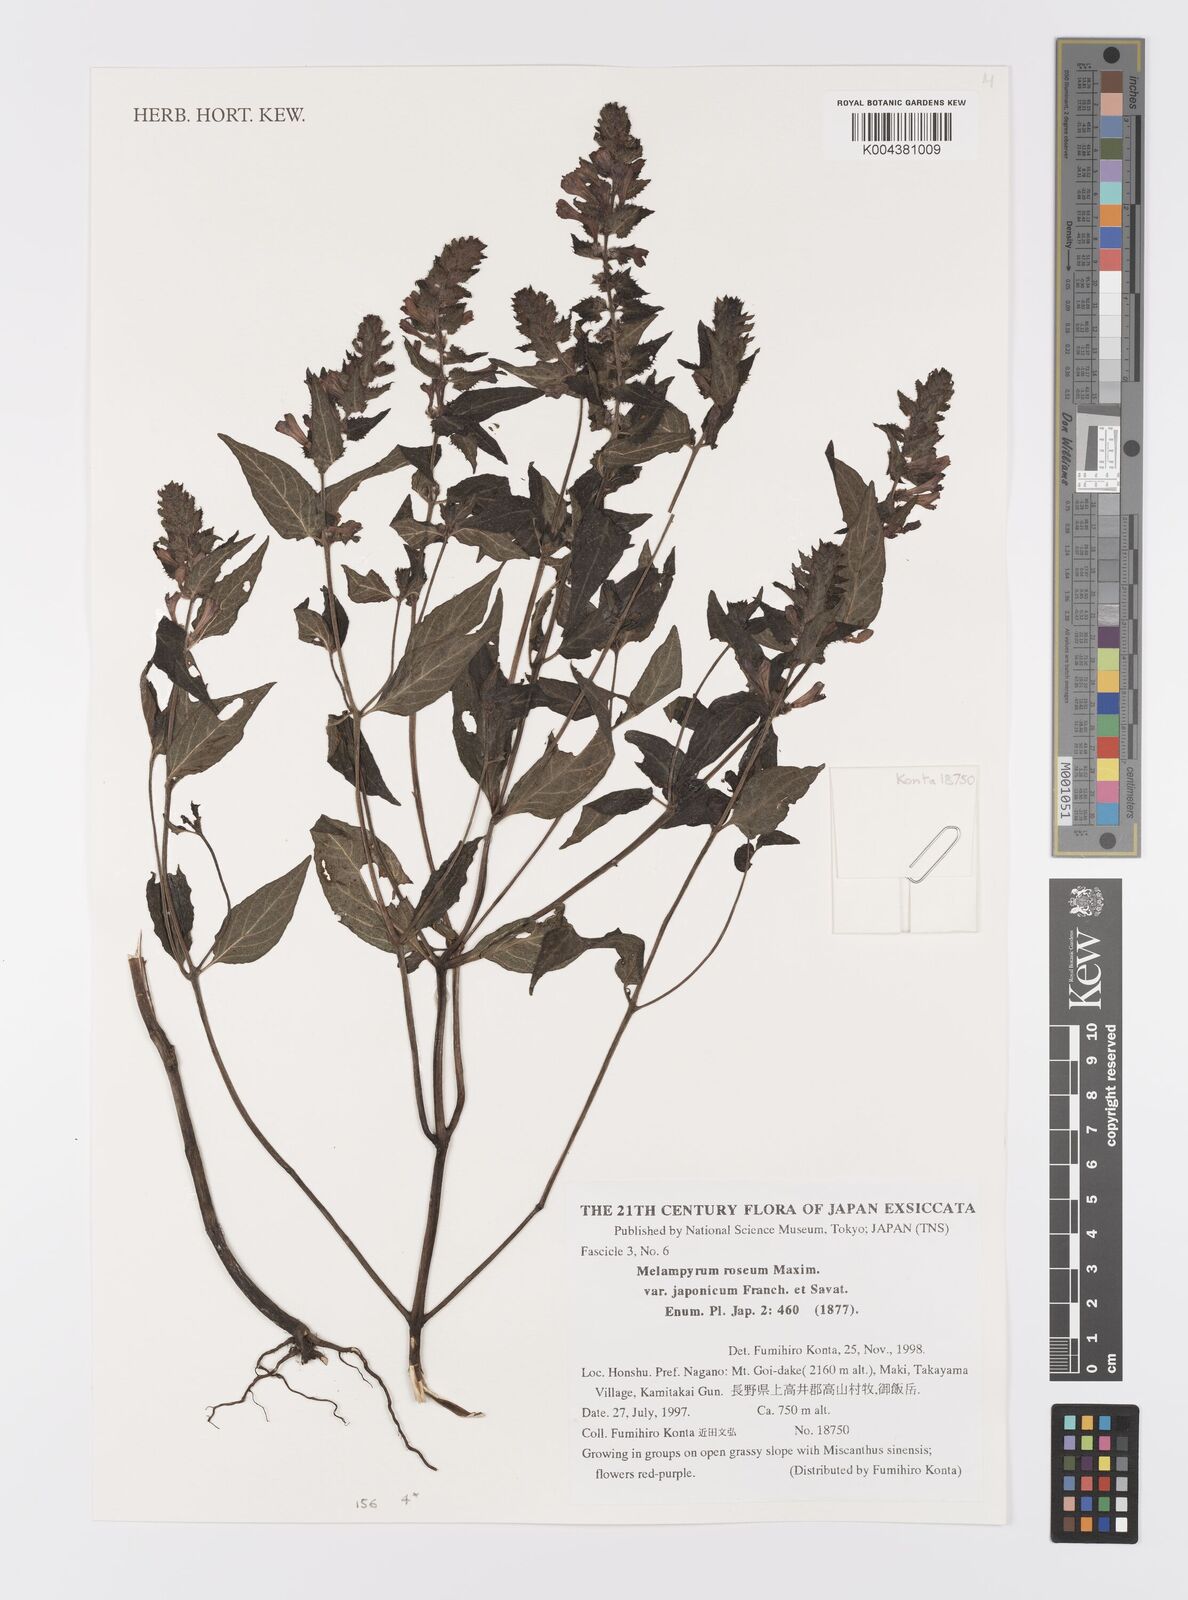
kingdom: Plantae
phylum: Tracheophyta
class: Magnoliopsida
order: Lamiales
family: Orobanchaceae
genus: Melampyrum
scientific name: Melampyrum roseum
